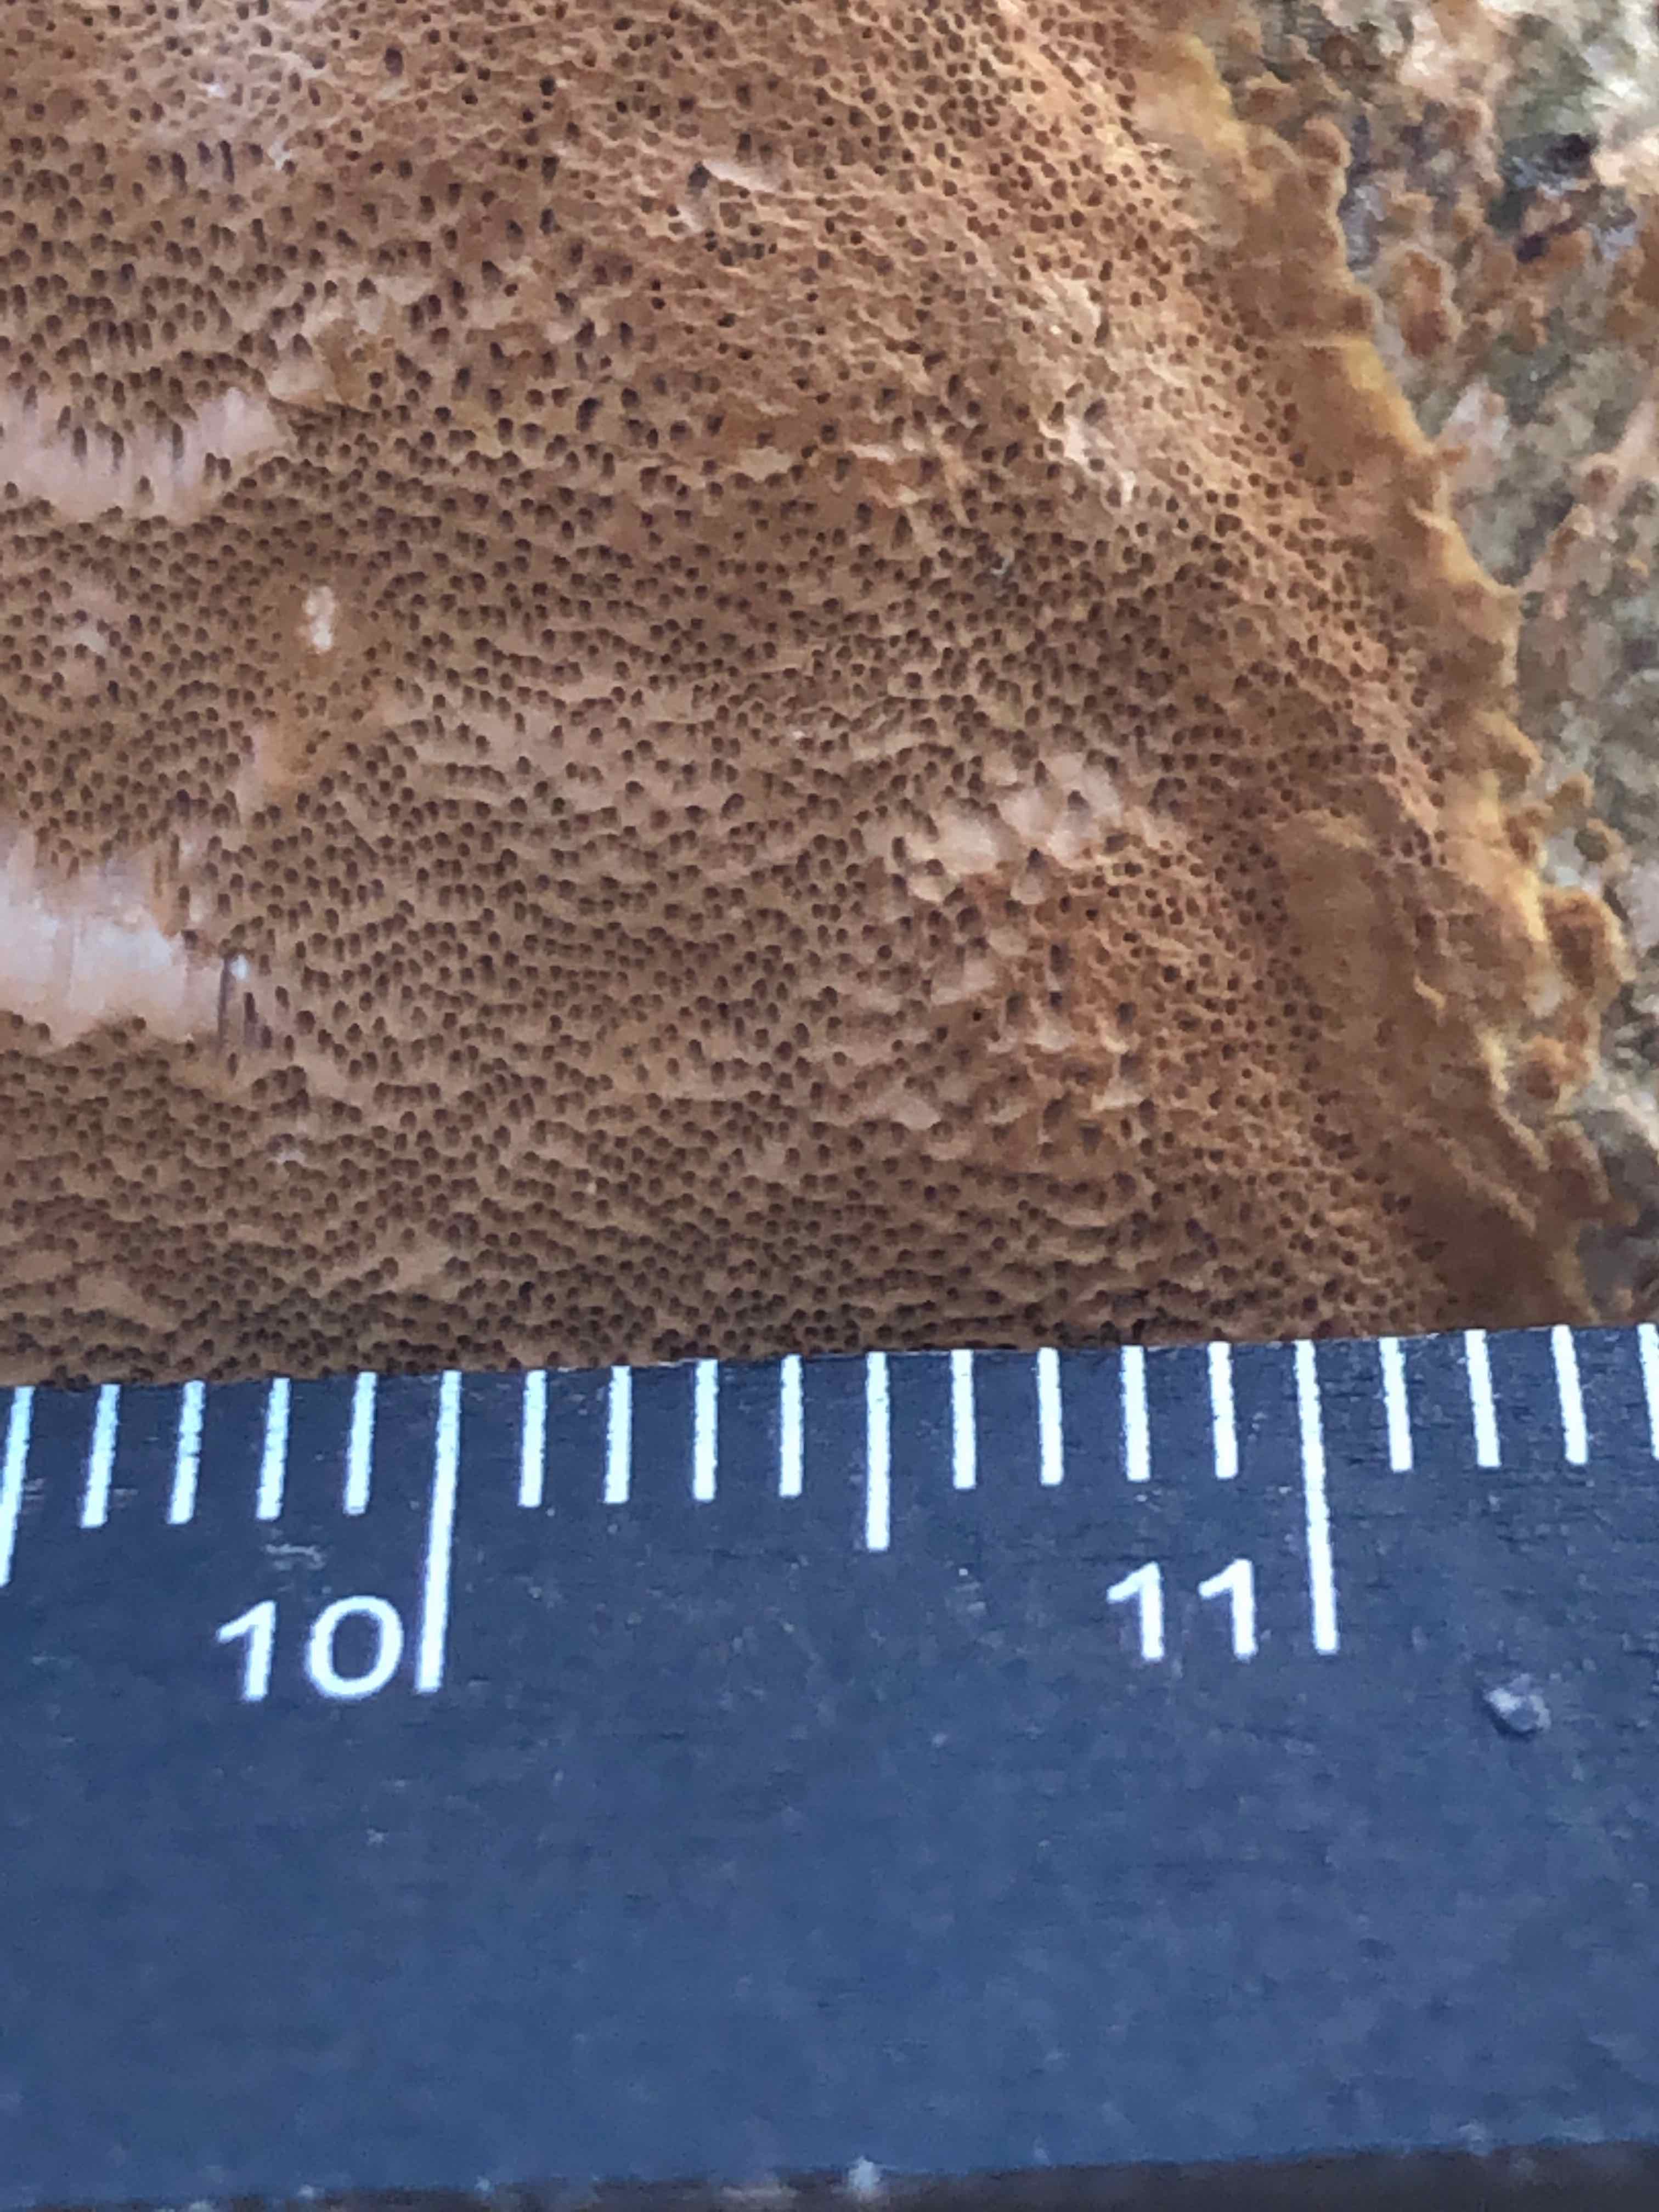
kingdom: Fungi
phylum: Basidiomycota
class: Agaricomycetes
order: Hymenochaetales
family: Hymenochaetaceae
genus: Fuscoporia
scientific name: Fuscoporia ferrea
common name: skorpe-ildporesvamp
